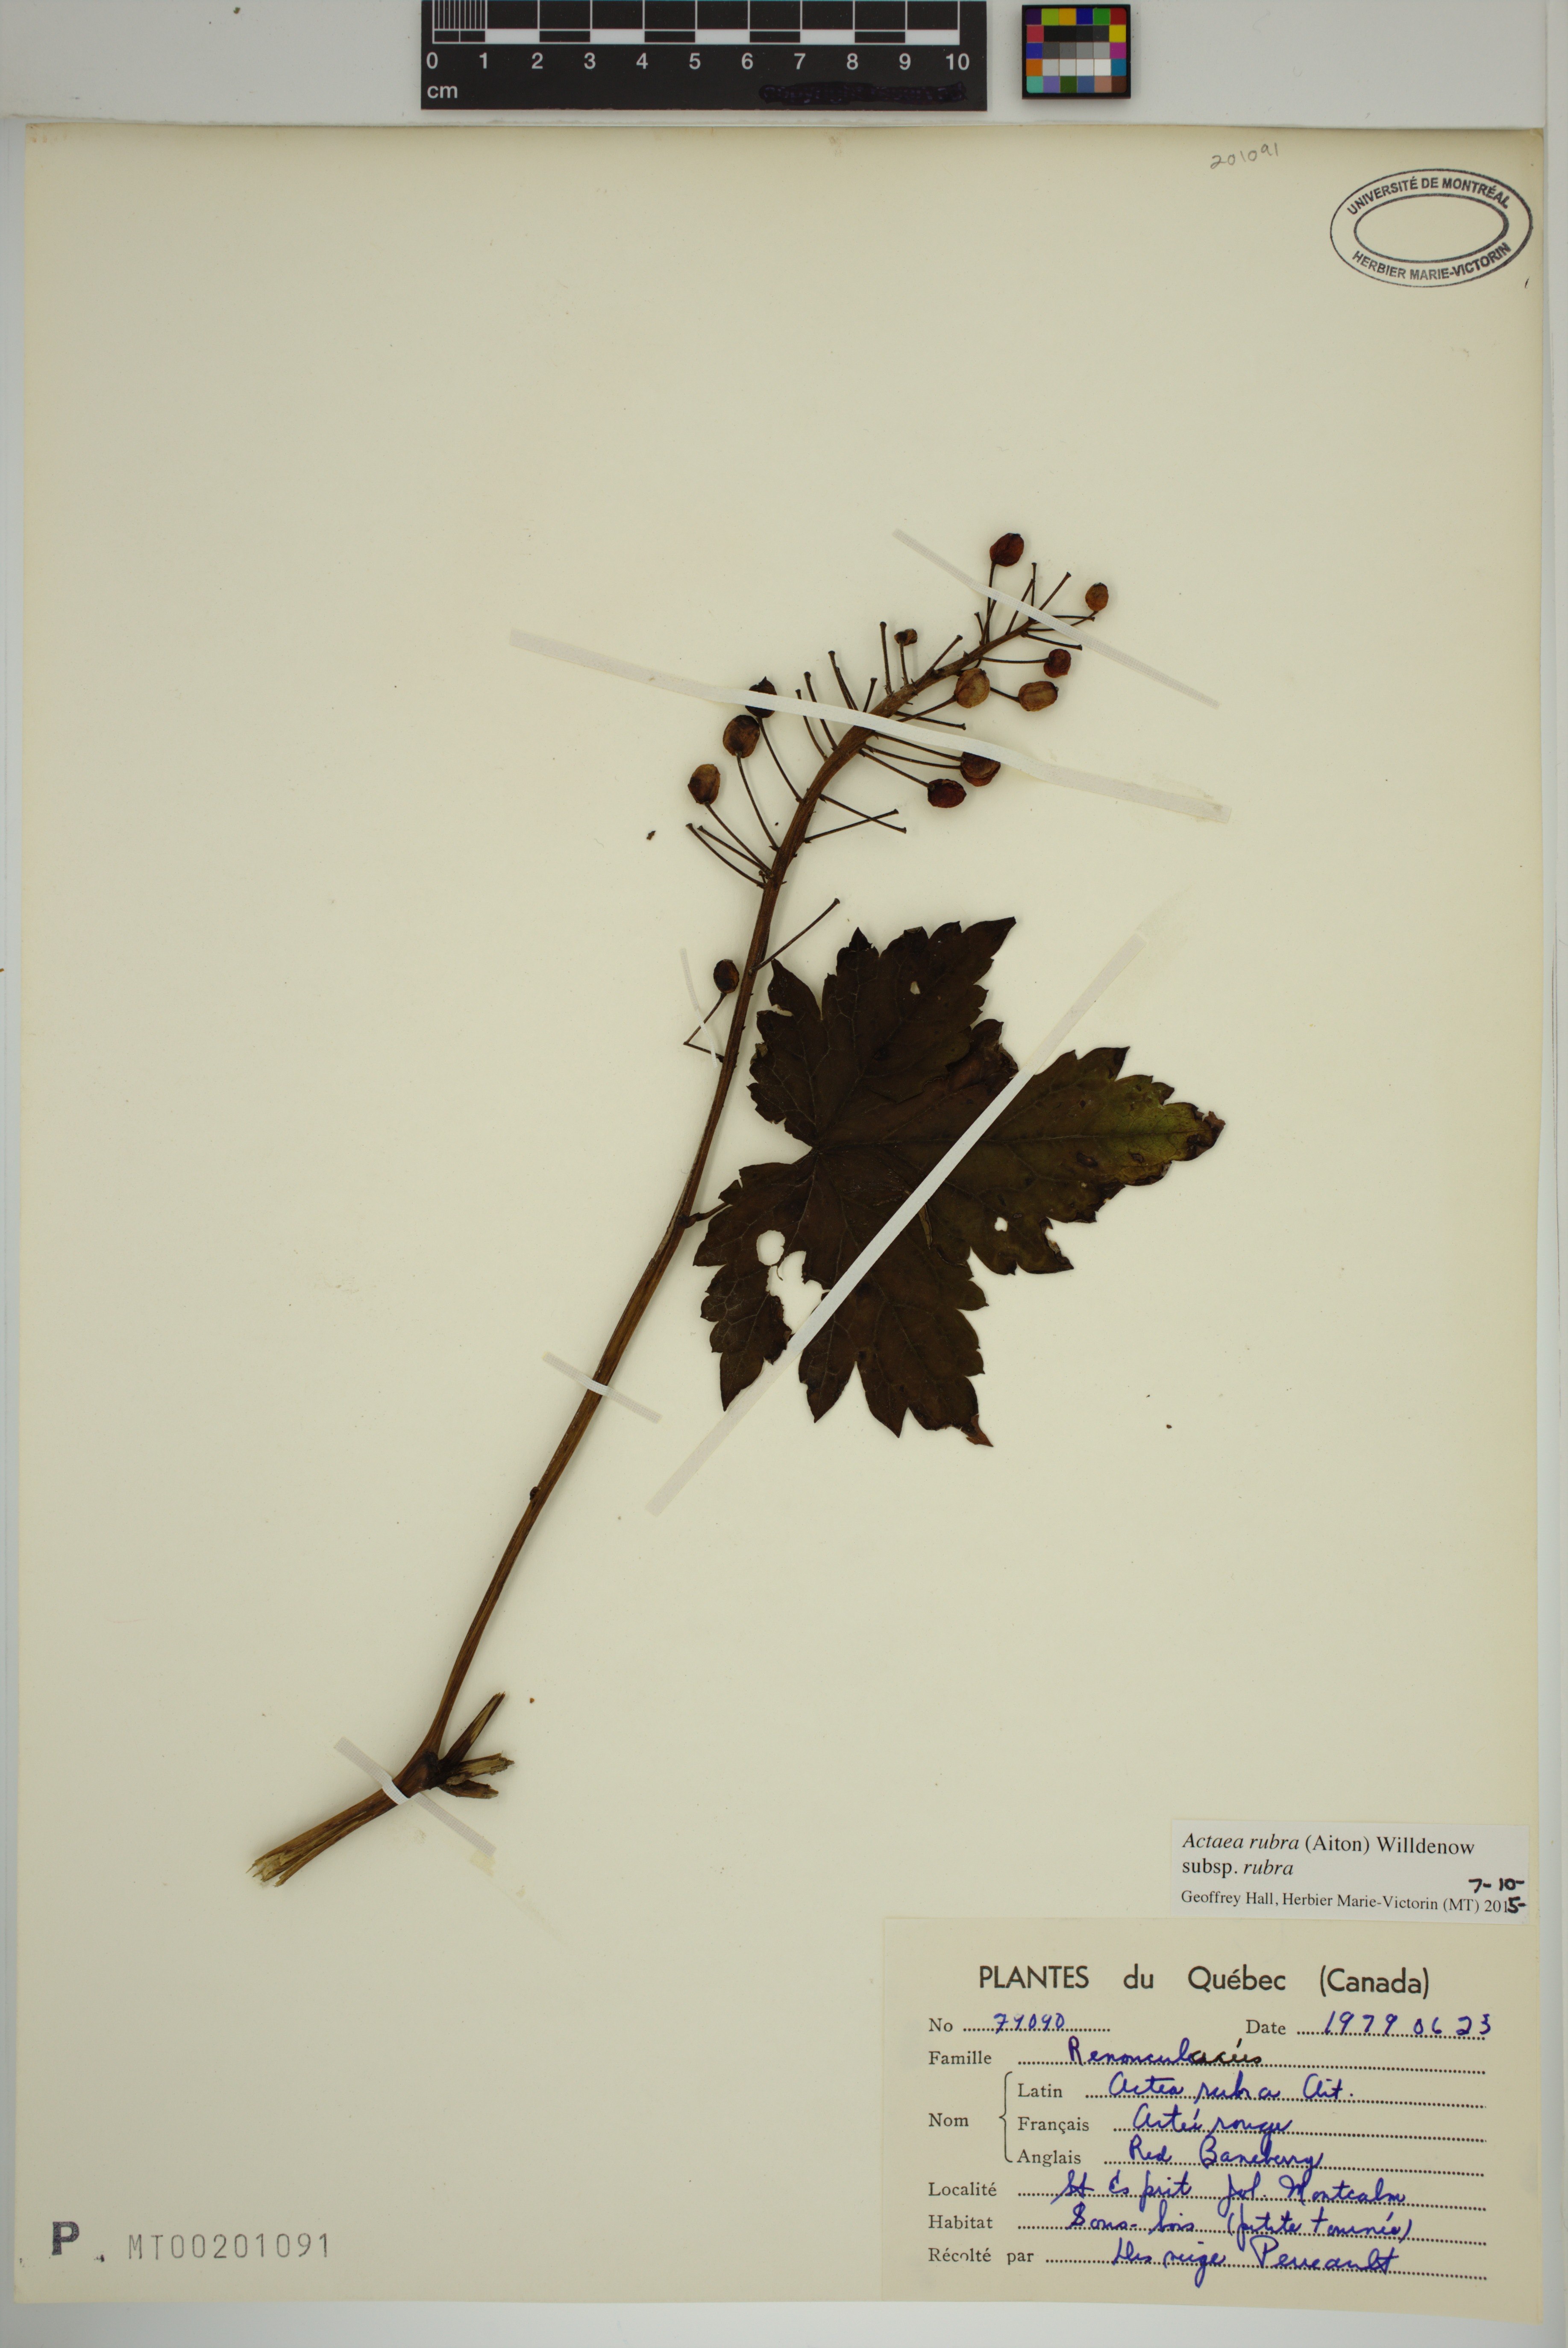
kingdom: Plantae
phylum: Tracheophyta
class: Magnoliopsida
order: Ranunculales
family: Ranunculaceae
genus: Actaea
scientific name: Actaea rubra
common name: Red baneberry
